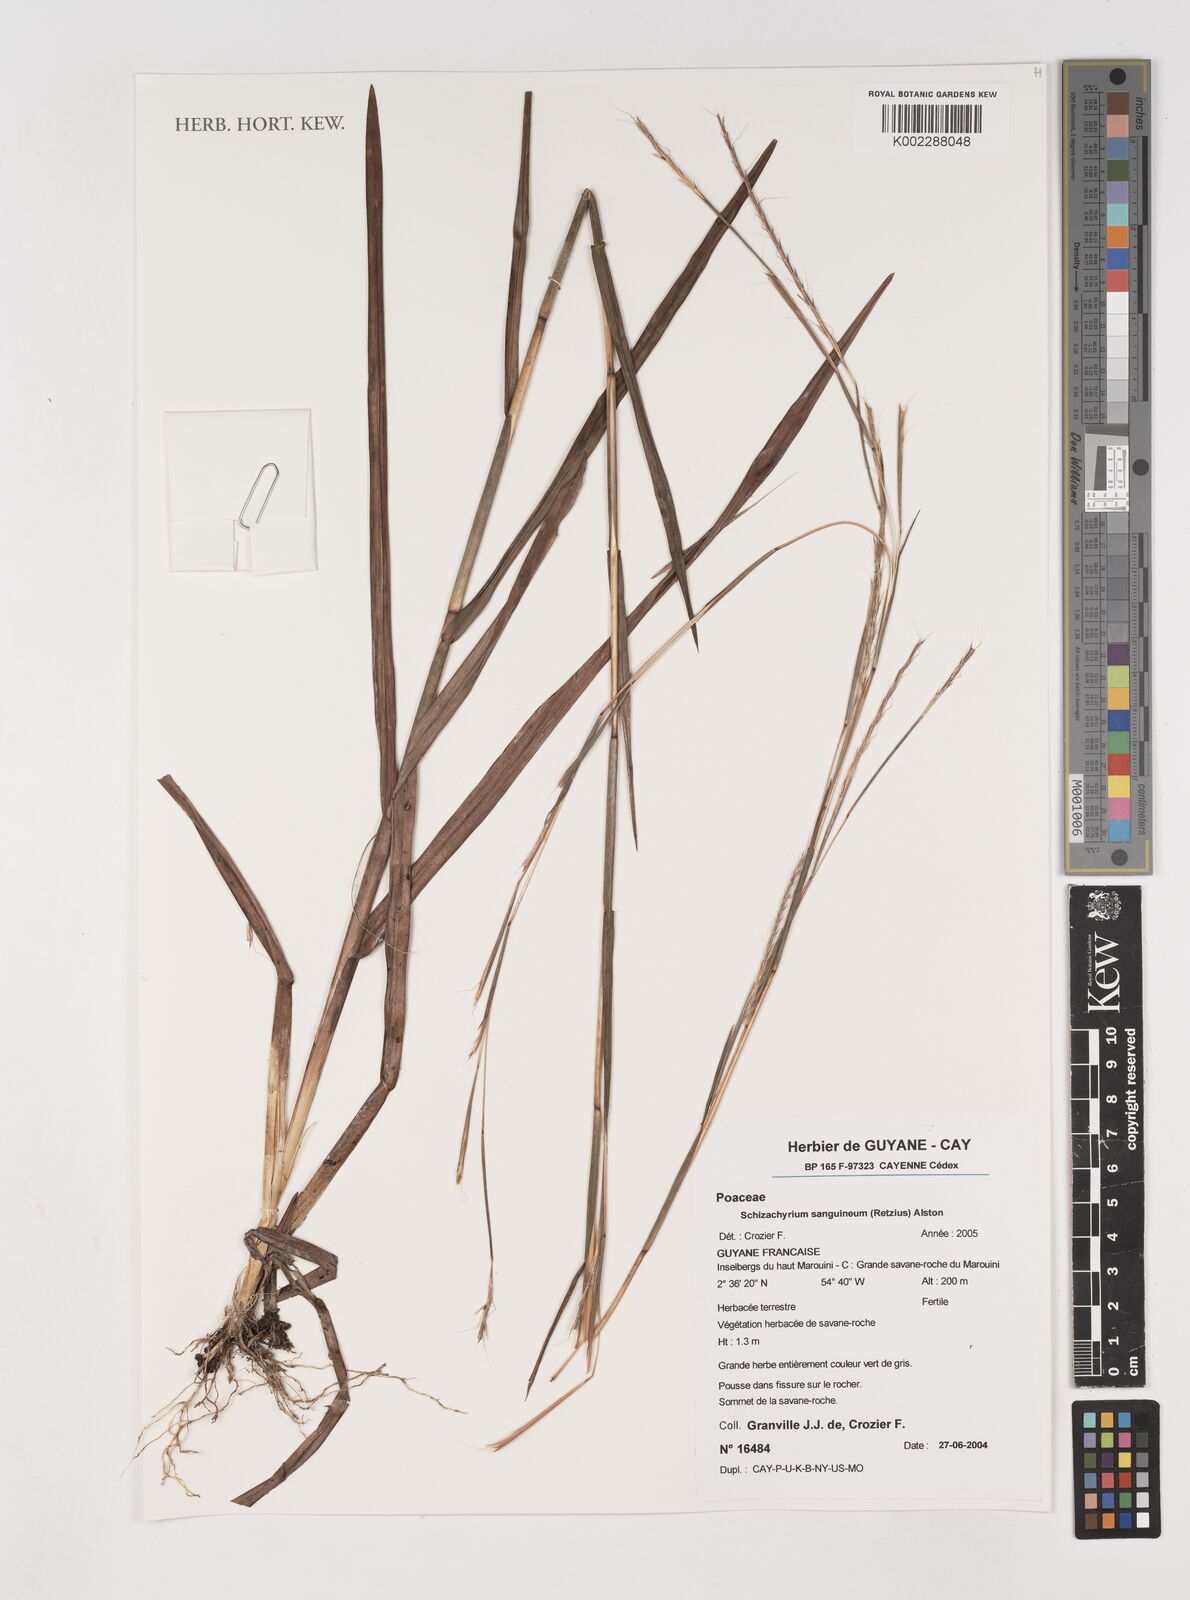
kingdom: Plantae
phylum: Tracheophyta
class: Liliopsida
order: Poales
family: Poaceae
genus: Schizachyrium
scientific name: Schizachyrium sanguineum
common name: Crimson bluestem
